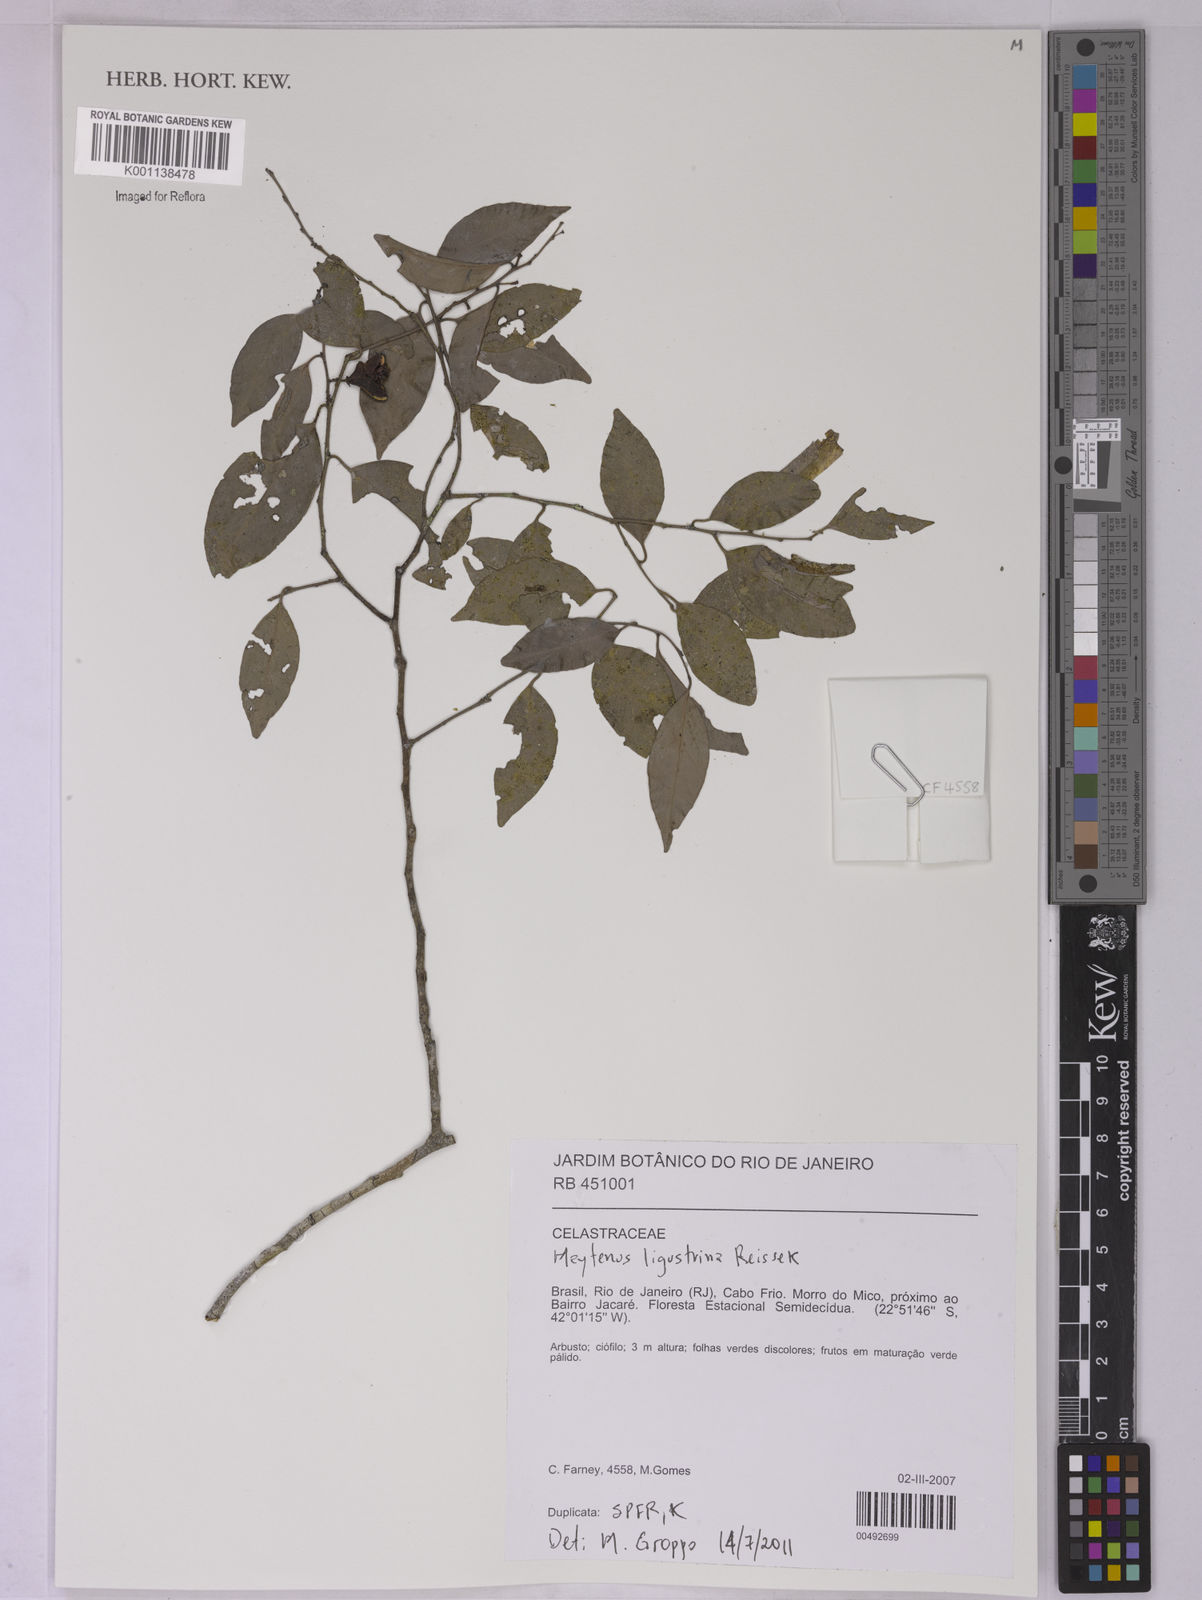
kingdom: Plantae
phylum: Tracheophyta
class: Magnoliopsida
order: Celastrales
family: Celastraceae
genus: Monteverdia
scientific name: Monteverdia brasiliensis
